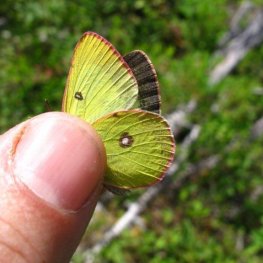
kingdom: Animalia
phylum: Arthropoda
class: Insecta
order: Lepidoptera
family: Pieridae
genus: Colias
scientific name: Colias interior
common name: Pink-edged Sulphur
